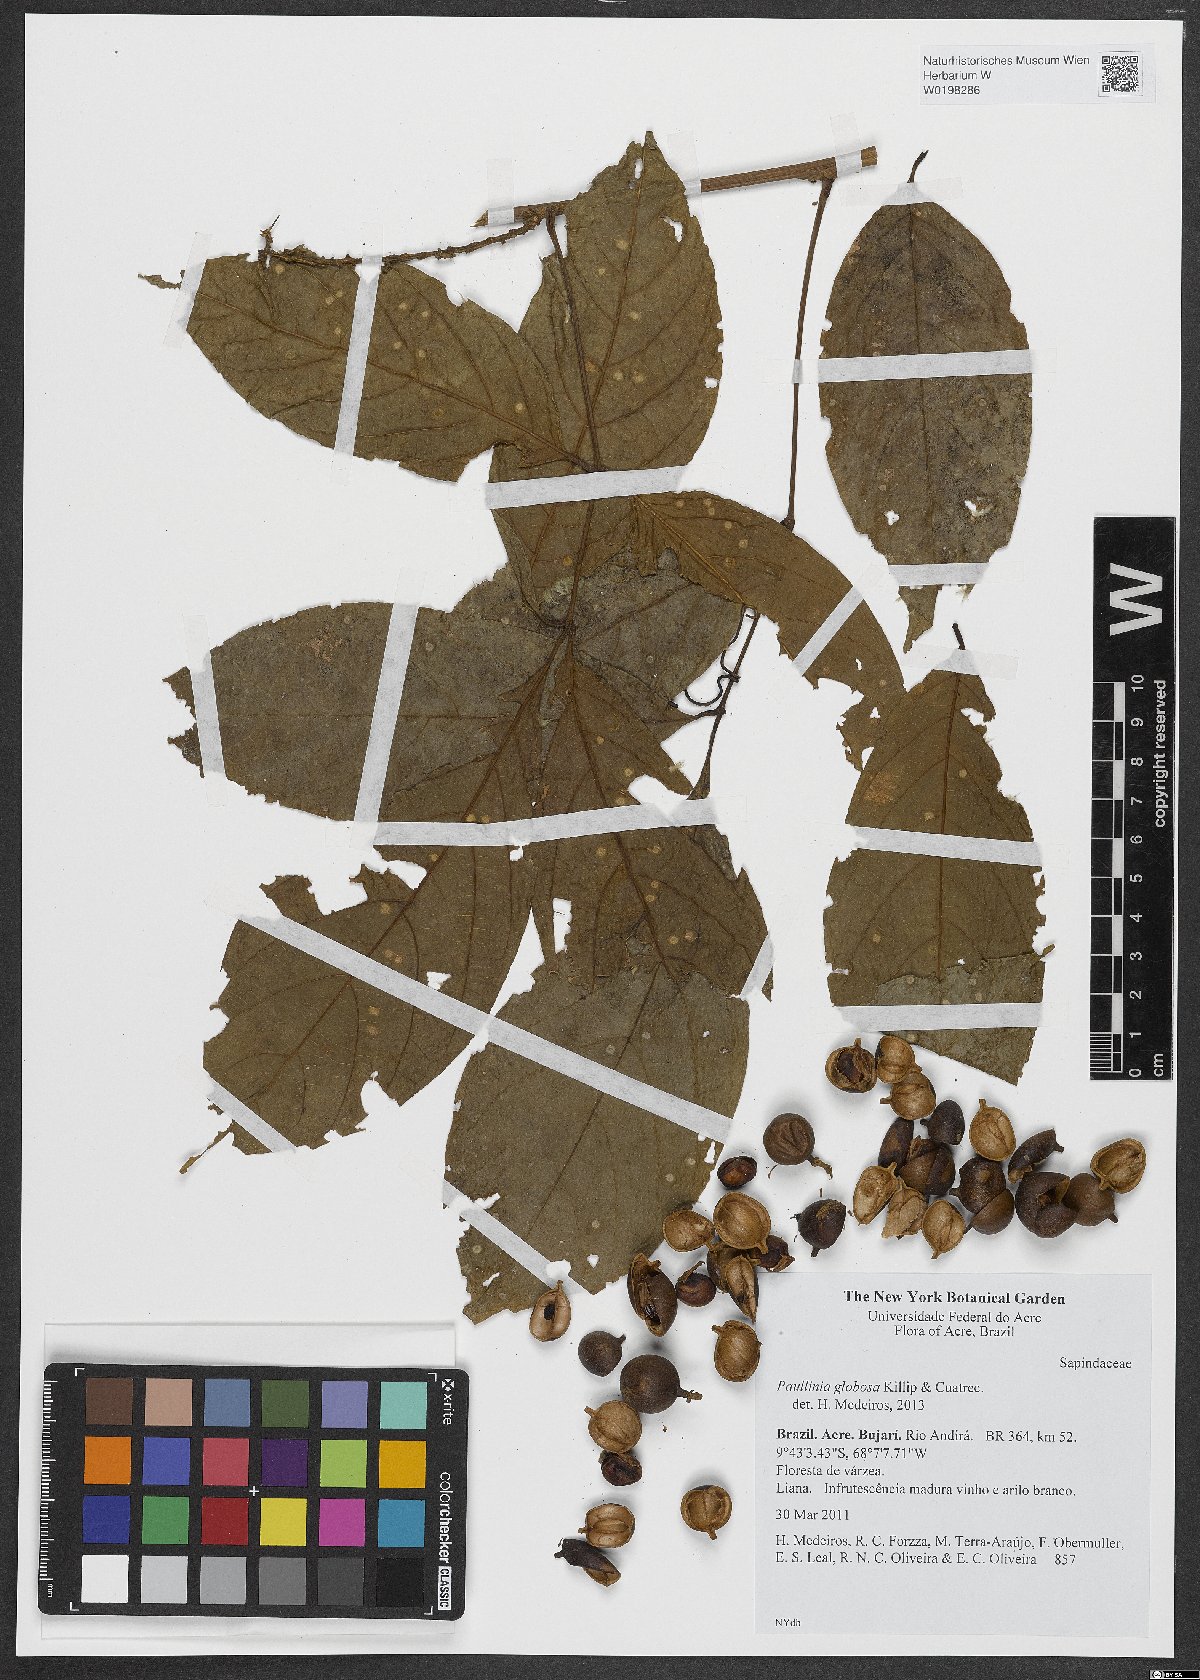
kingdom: Plantae
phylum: Tracheophyta
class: Magnoliopsida
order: Sapindales
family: Sapindaceae
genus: Paullinia
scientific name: Paullinia globosa
